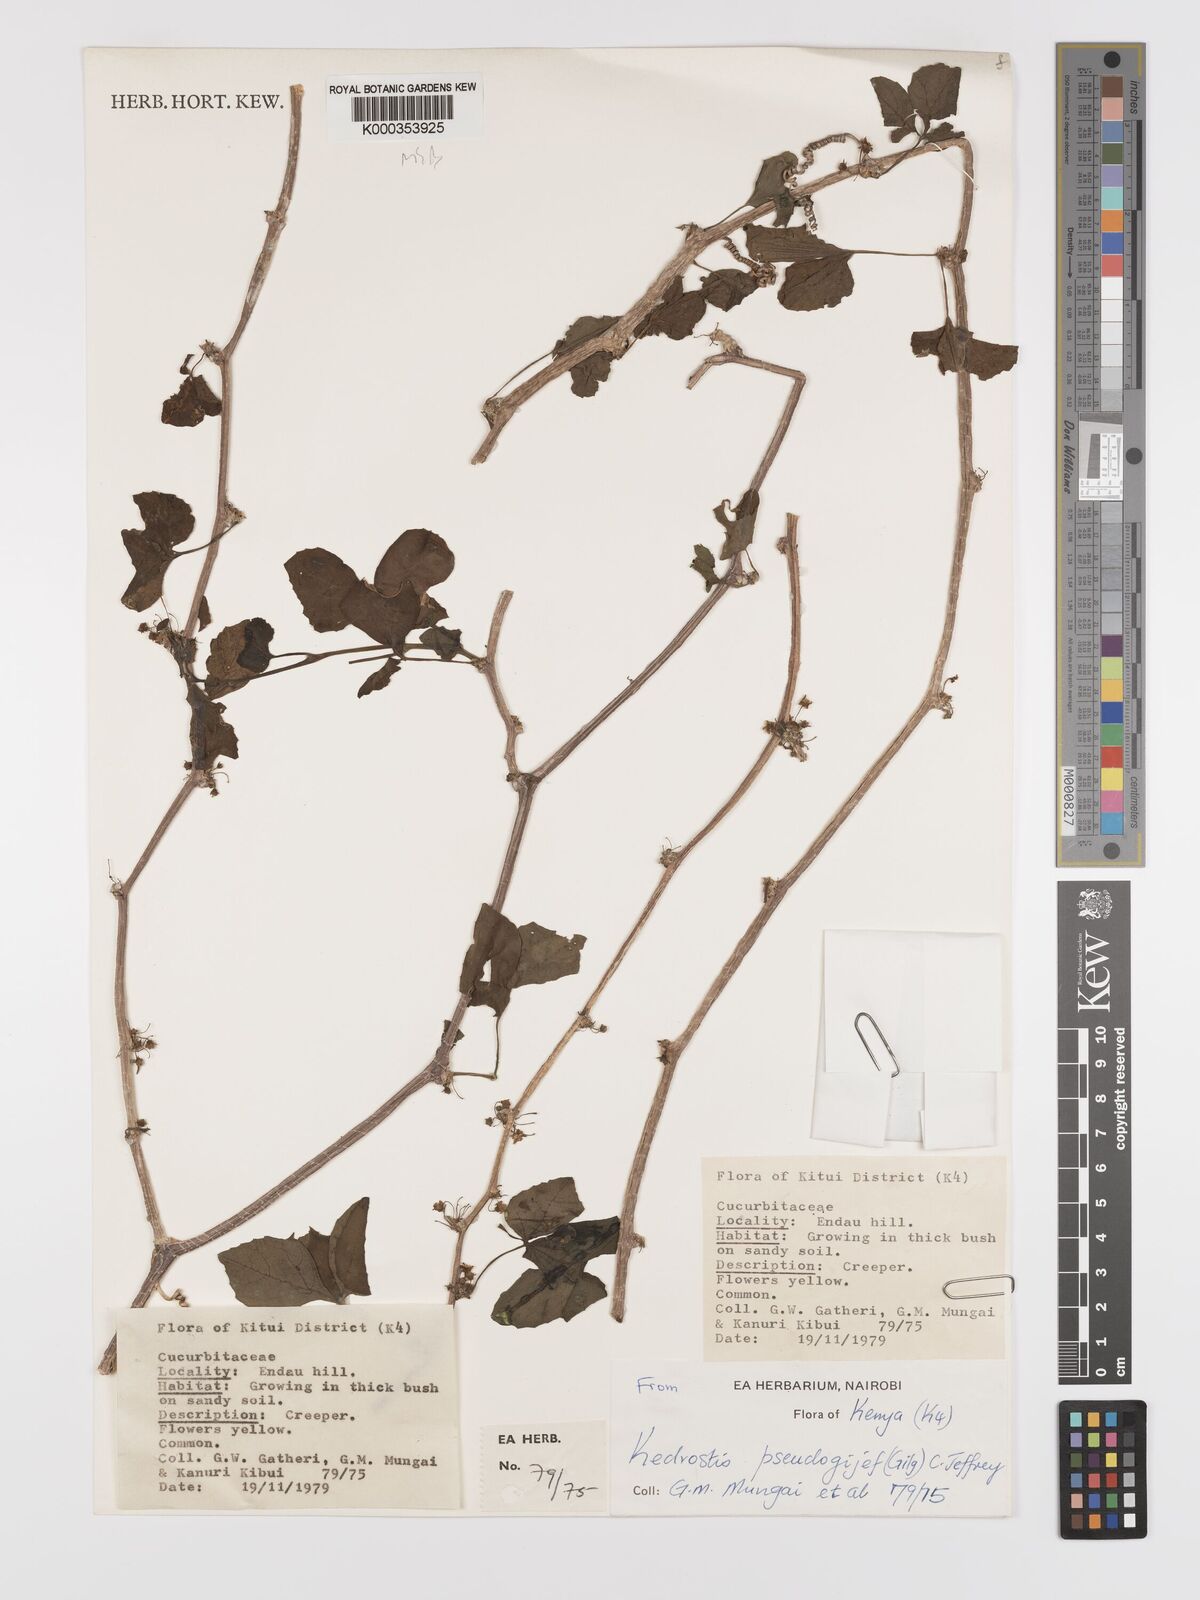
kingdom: Plantae
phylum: Tracheophyta
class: Magnoliopsida
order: Cucurbitales
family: Cucurbitaceae
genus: Kedrostis
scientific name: Kedrostis pseudogijef
